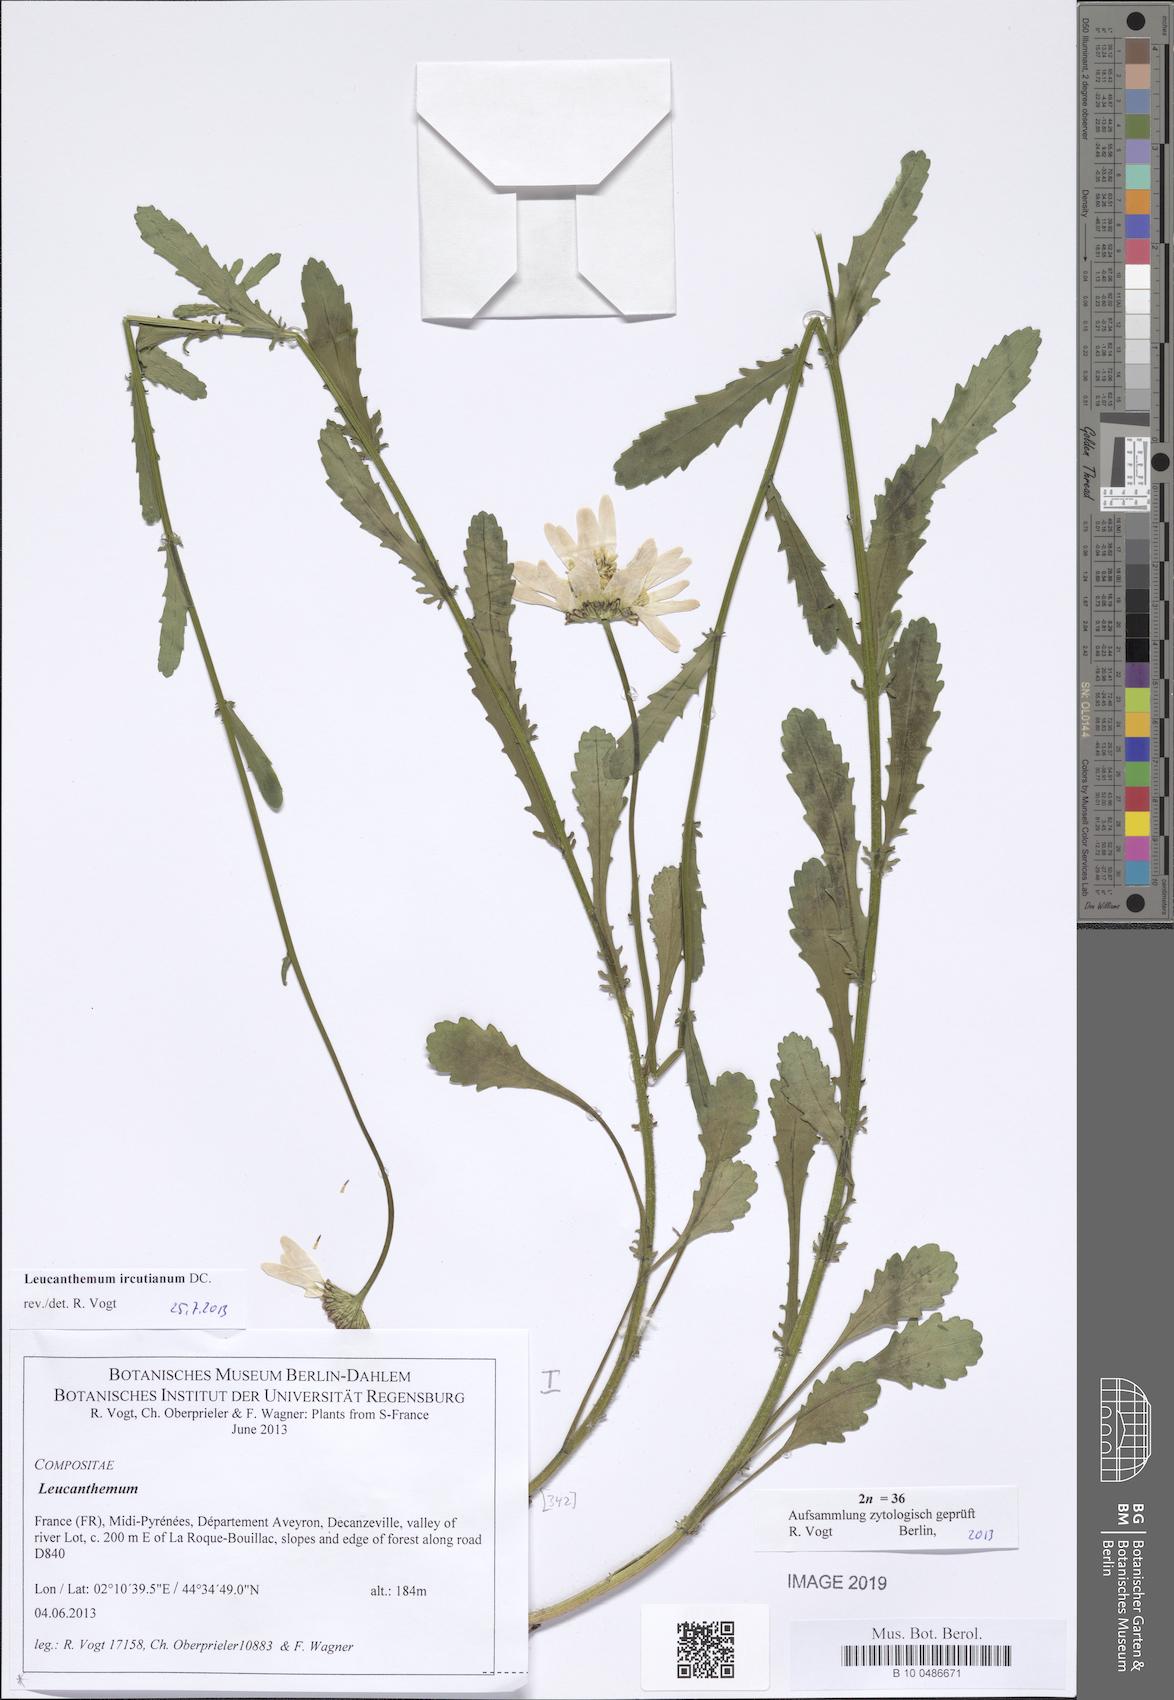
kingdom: Plantae
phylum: Tracheophyta
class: Magnoliopsida
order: Asterales
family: Asteraceae
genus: Leucanthemum
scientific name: Leucanthemum ircutianum
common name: Daisy
